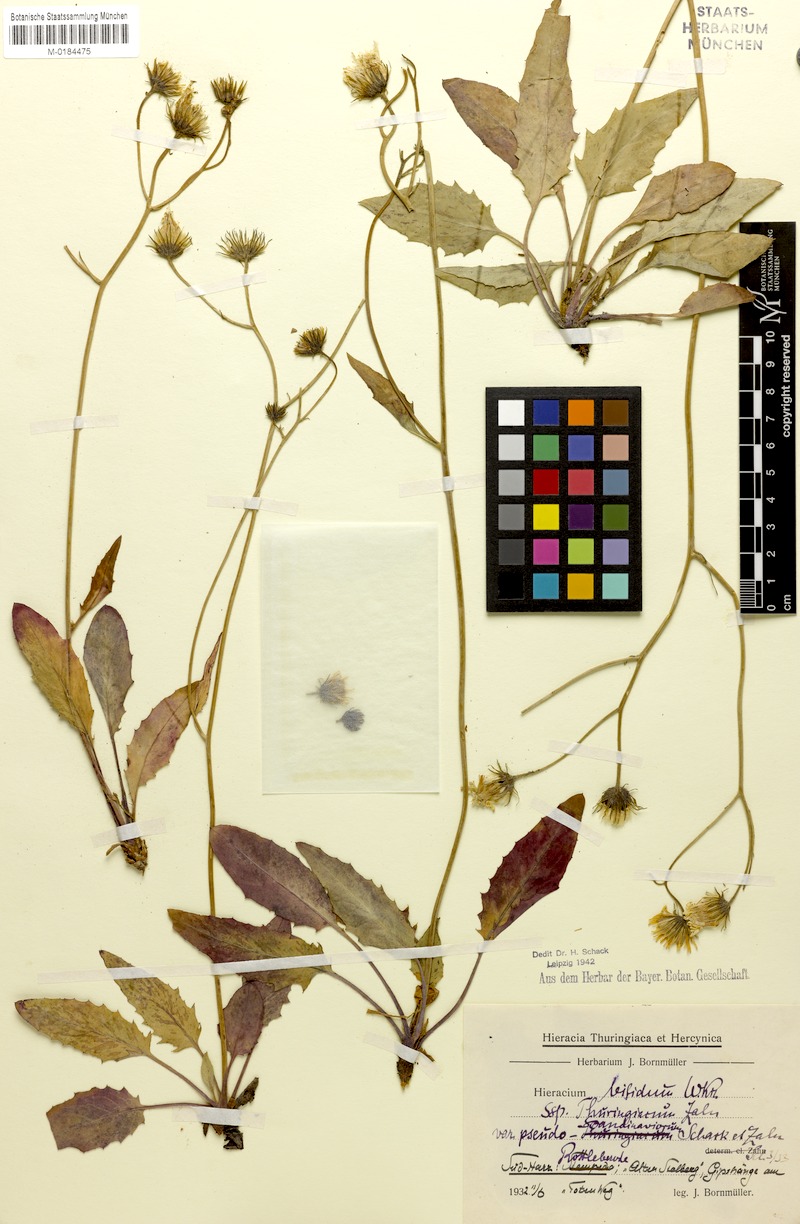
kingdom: Plantae
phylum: Tracheophyta
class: Magnoliopsida
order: Asterales
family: Asteraceae
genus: Hieracium
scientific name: Hieracium bifidum
